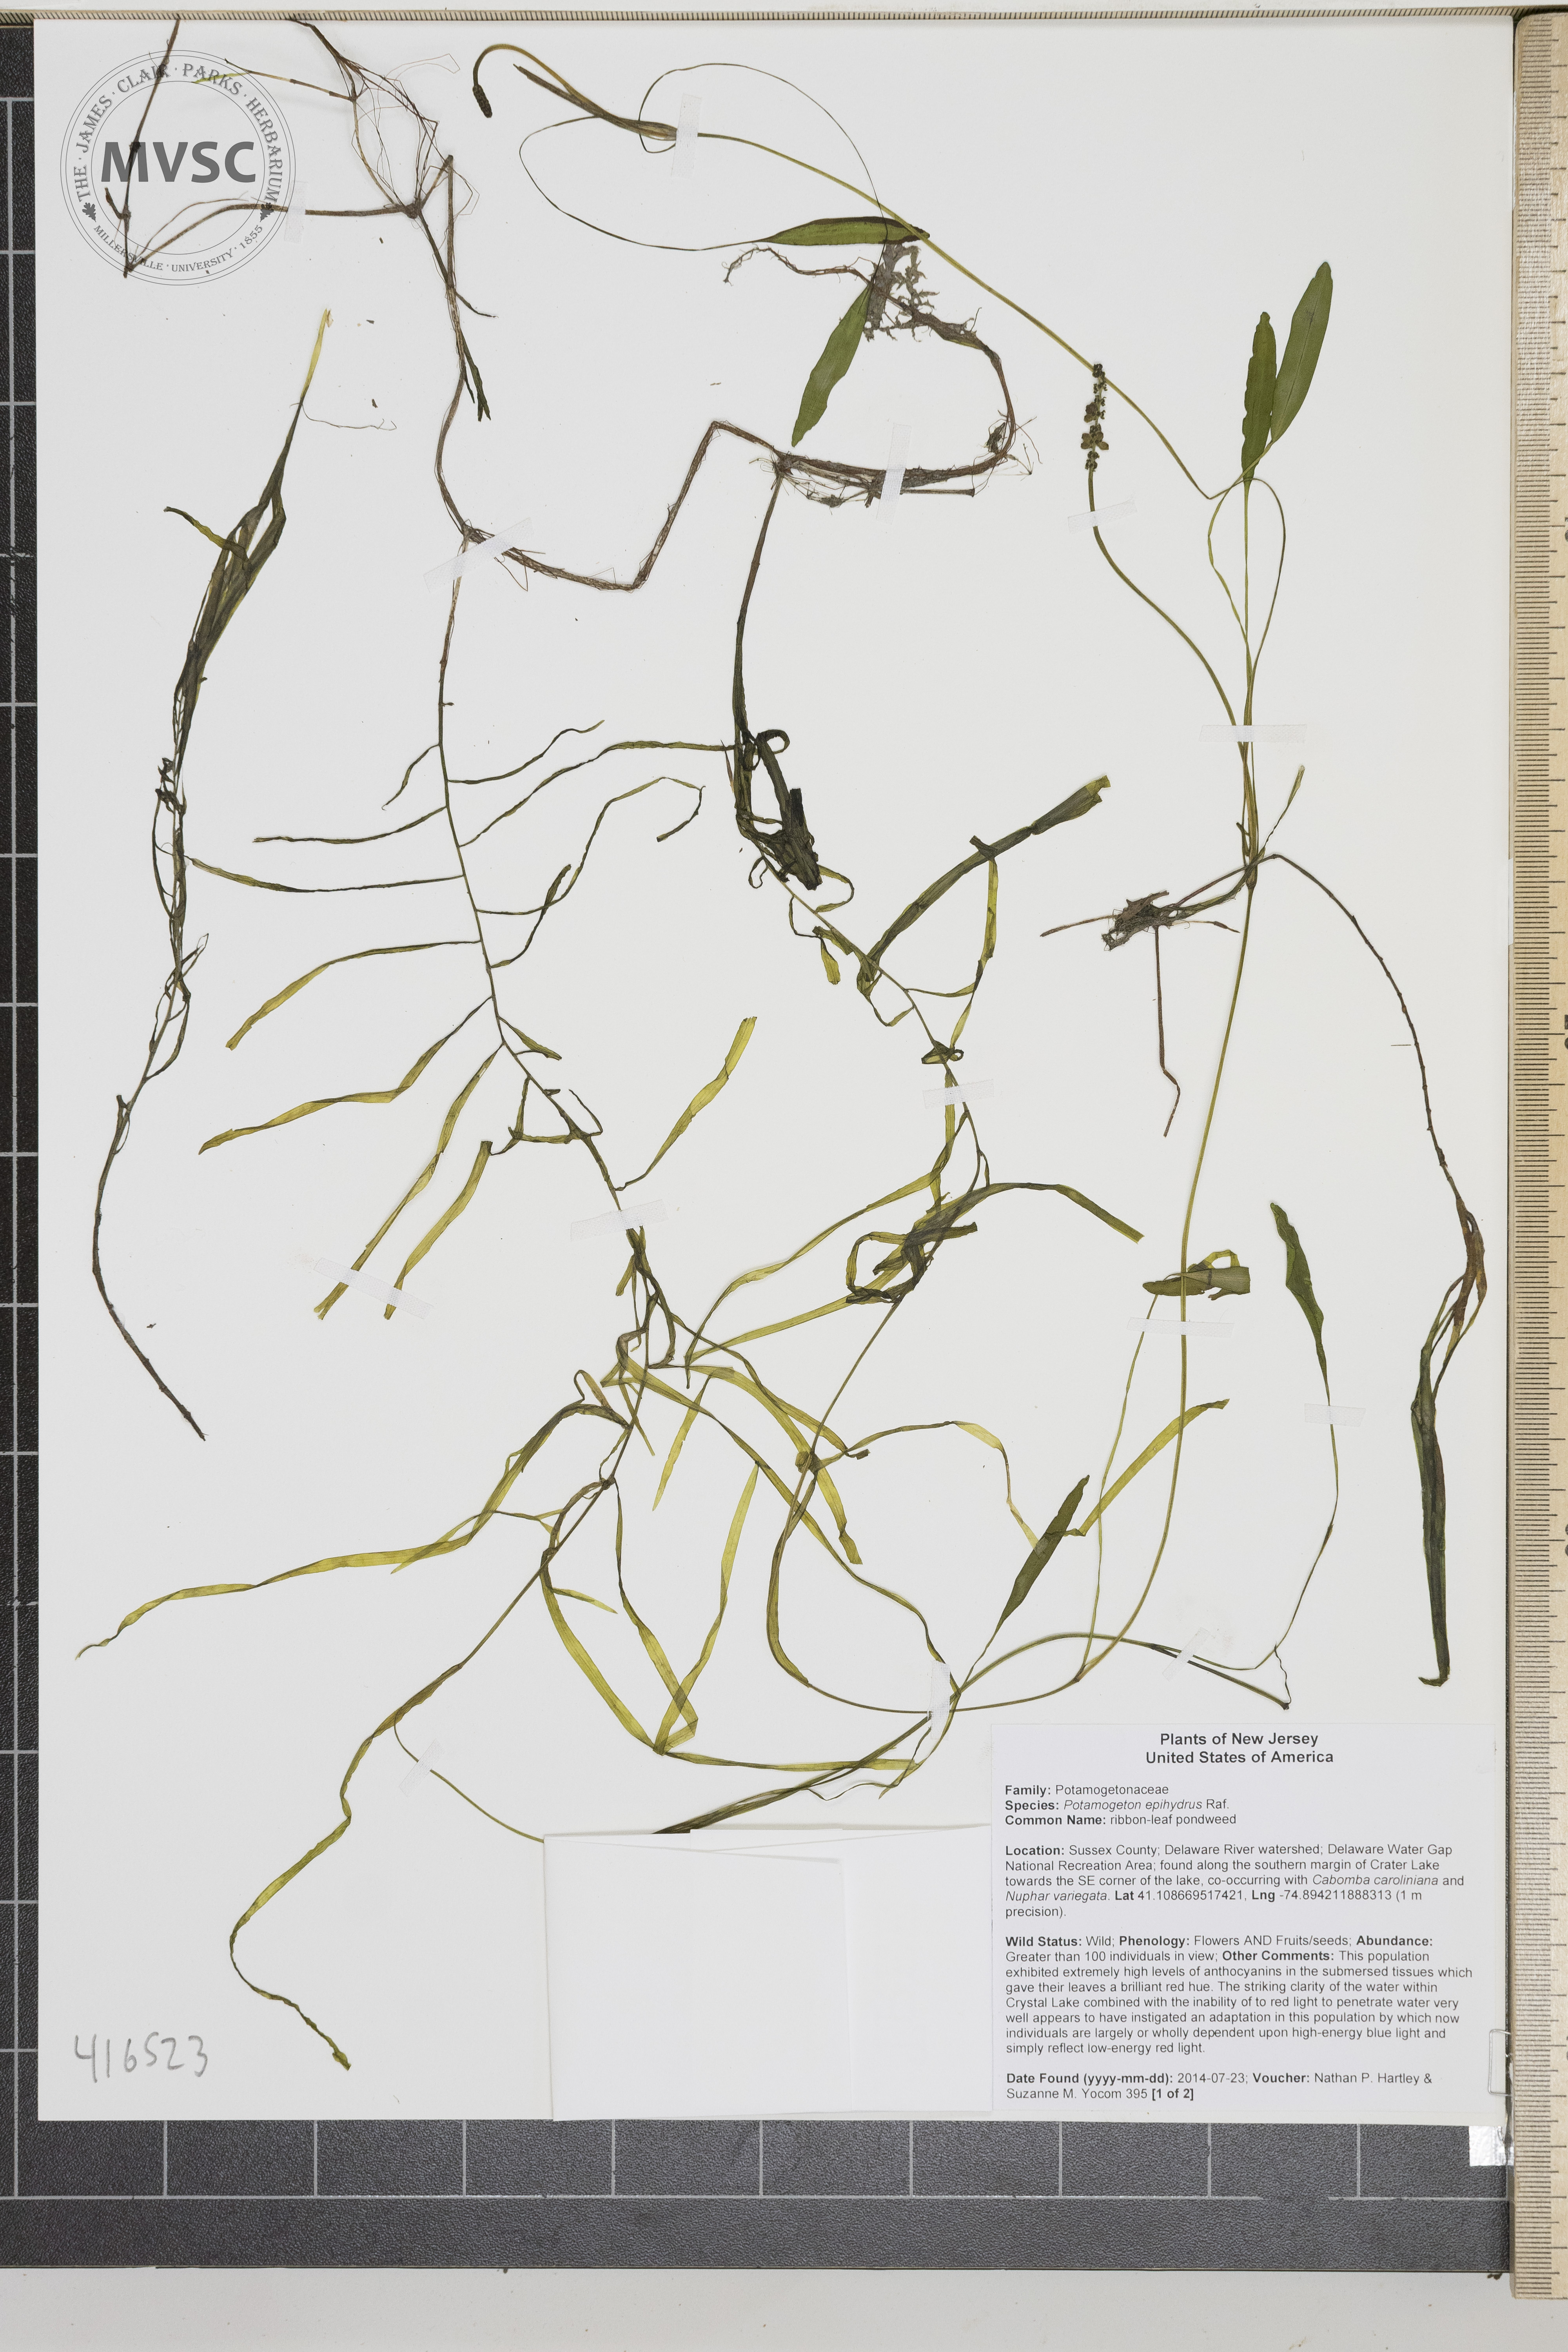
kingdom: Plantae
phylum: Tracheophyta
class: Liliopsida
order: Alismatales
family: Potamogetonaceae
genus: Potamogeton
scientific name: Potamogeton epihydrus
